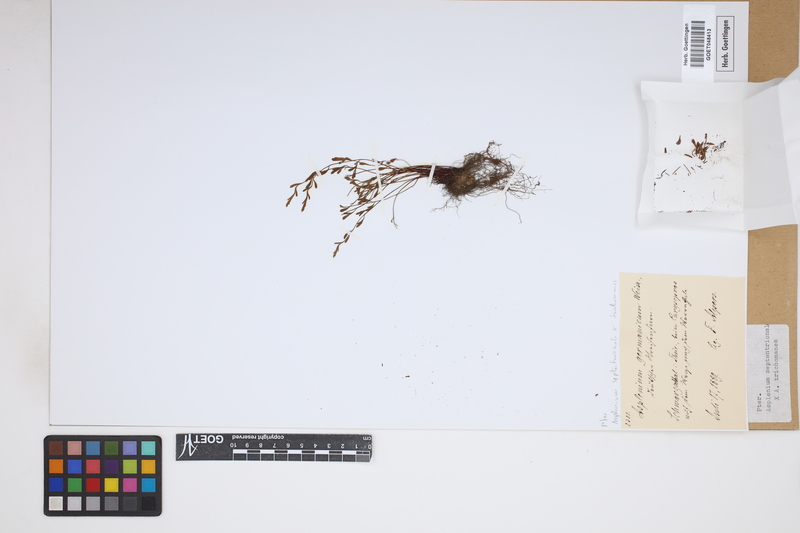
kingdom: Plantae
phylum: Tracheophyta
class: Polypodiopsida
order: Polypodiales
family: Aspleniaceae
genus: Asplenium
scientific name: Asplenium
